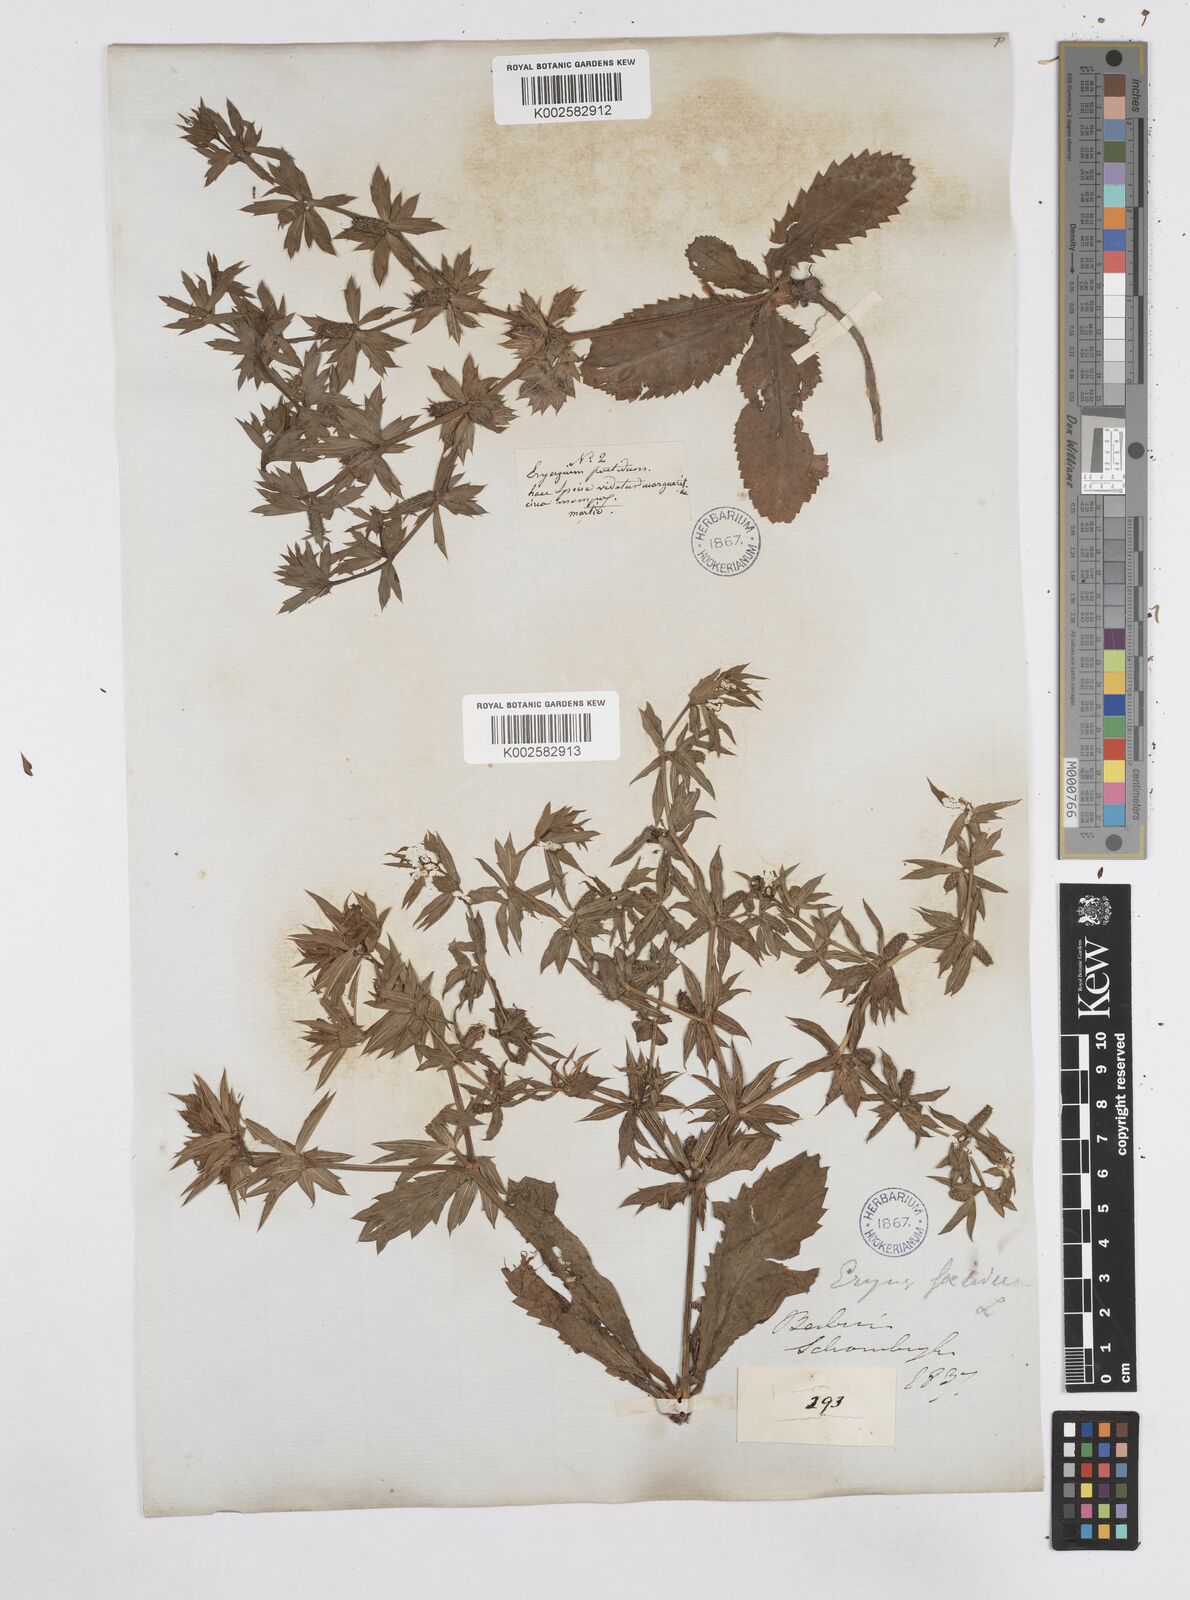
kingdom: Plantae
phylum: Tracheophyta
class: Magnoliopsida
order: Apiales
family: Apiaceae
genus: Eryngium
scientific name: Eryngium foetidum
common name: Fitweed
